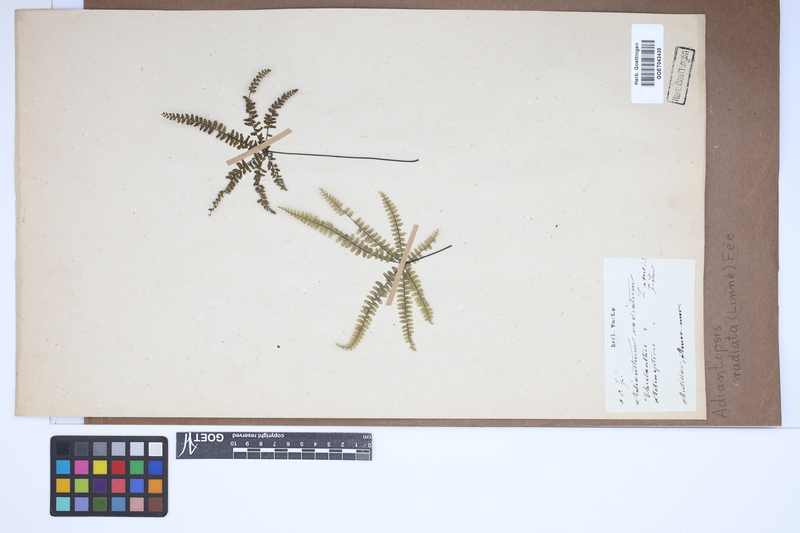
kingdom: Plantae
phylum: Tracheophyta
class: Polypodiopsida
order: Polypodiales
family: Pteridaceae
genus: Adiantopsis
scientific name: Adiantopsis radiata
